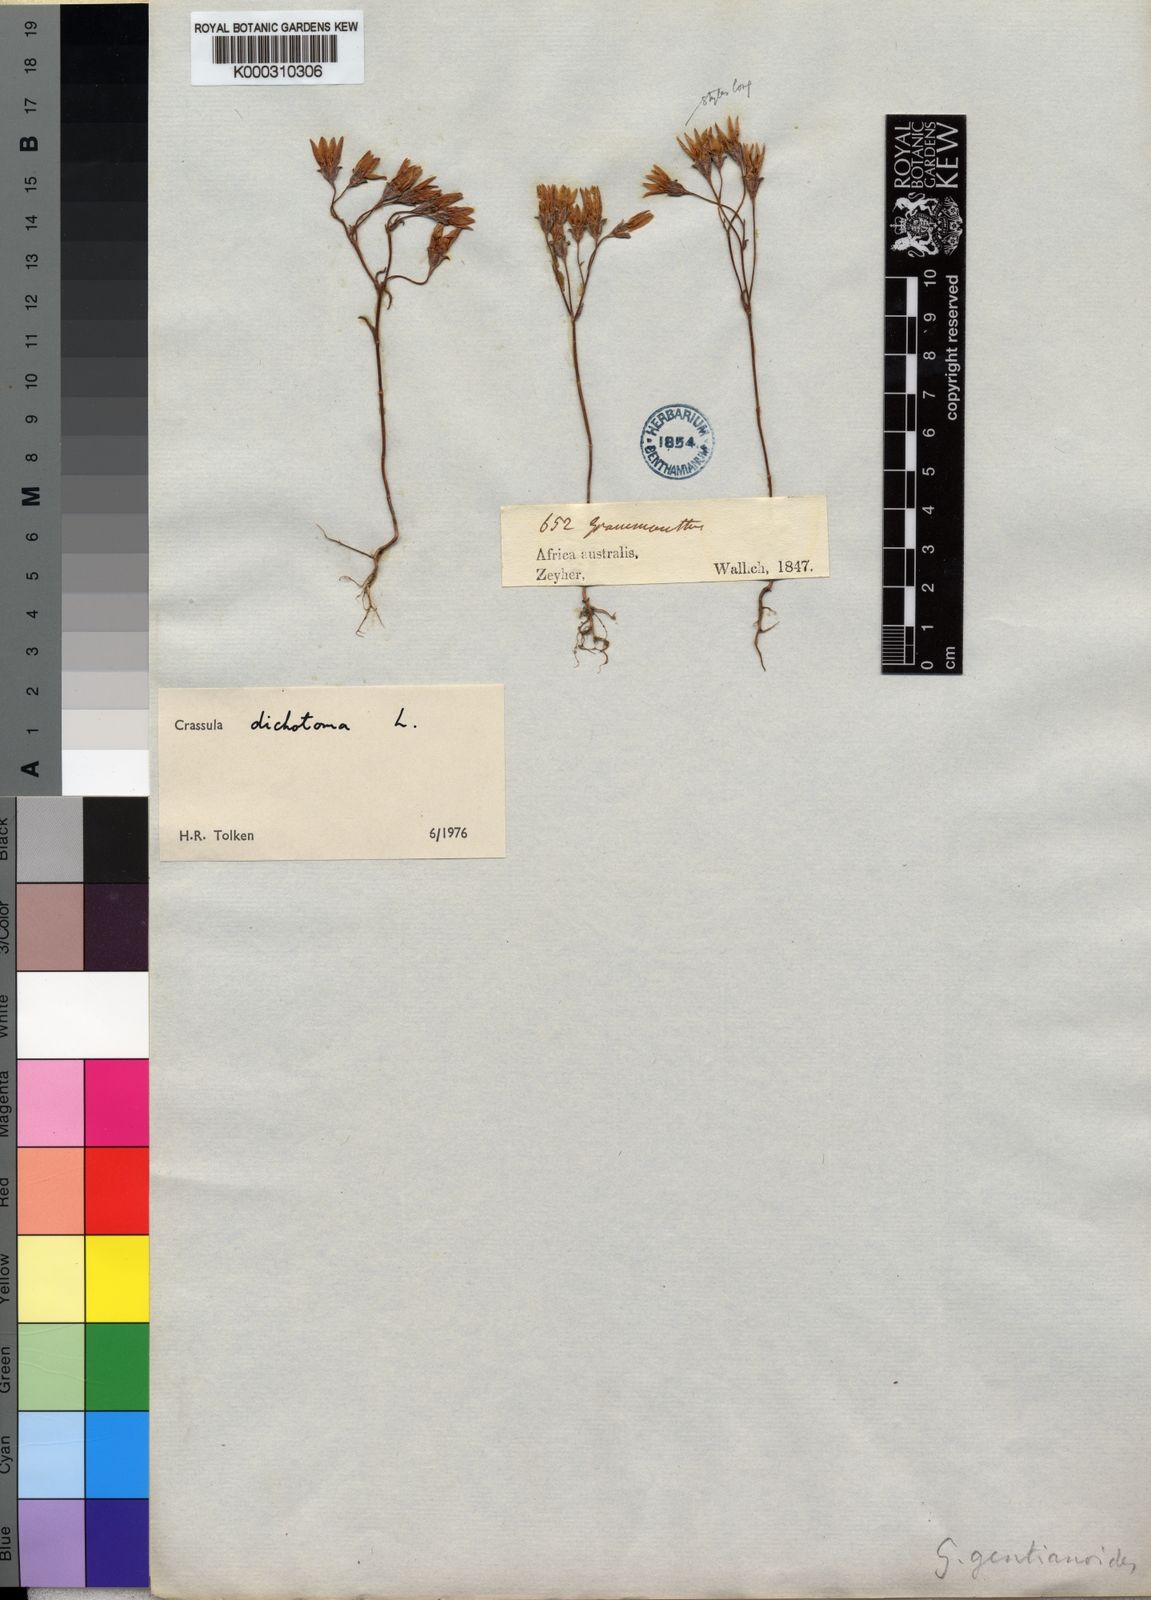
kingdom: Plantae
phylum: Tracheophyta
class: Magnoliopsida
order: Saxifragales
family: Crassulaceae
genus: Crassula
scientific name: Crassula dichotoma
